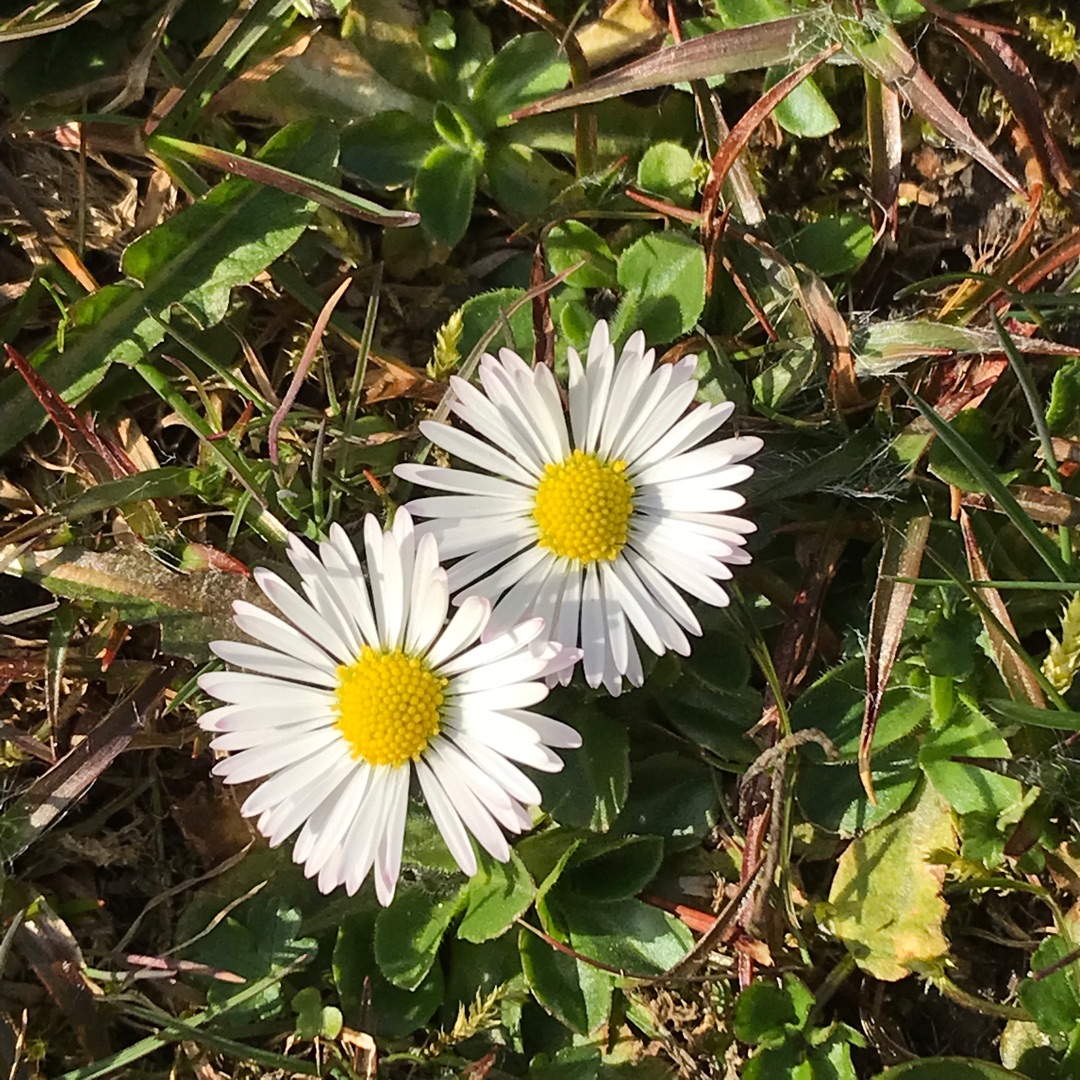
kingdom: Plantae
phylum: Tracheophyta
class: Magnoliopsida
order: Asterales
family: Asteraceae
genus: Bellis
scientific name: Bellis perennis
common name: Tusindfryd
